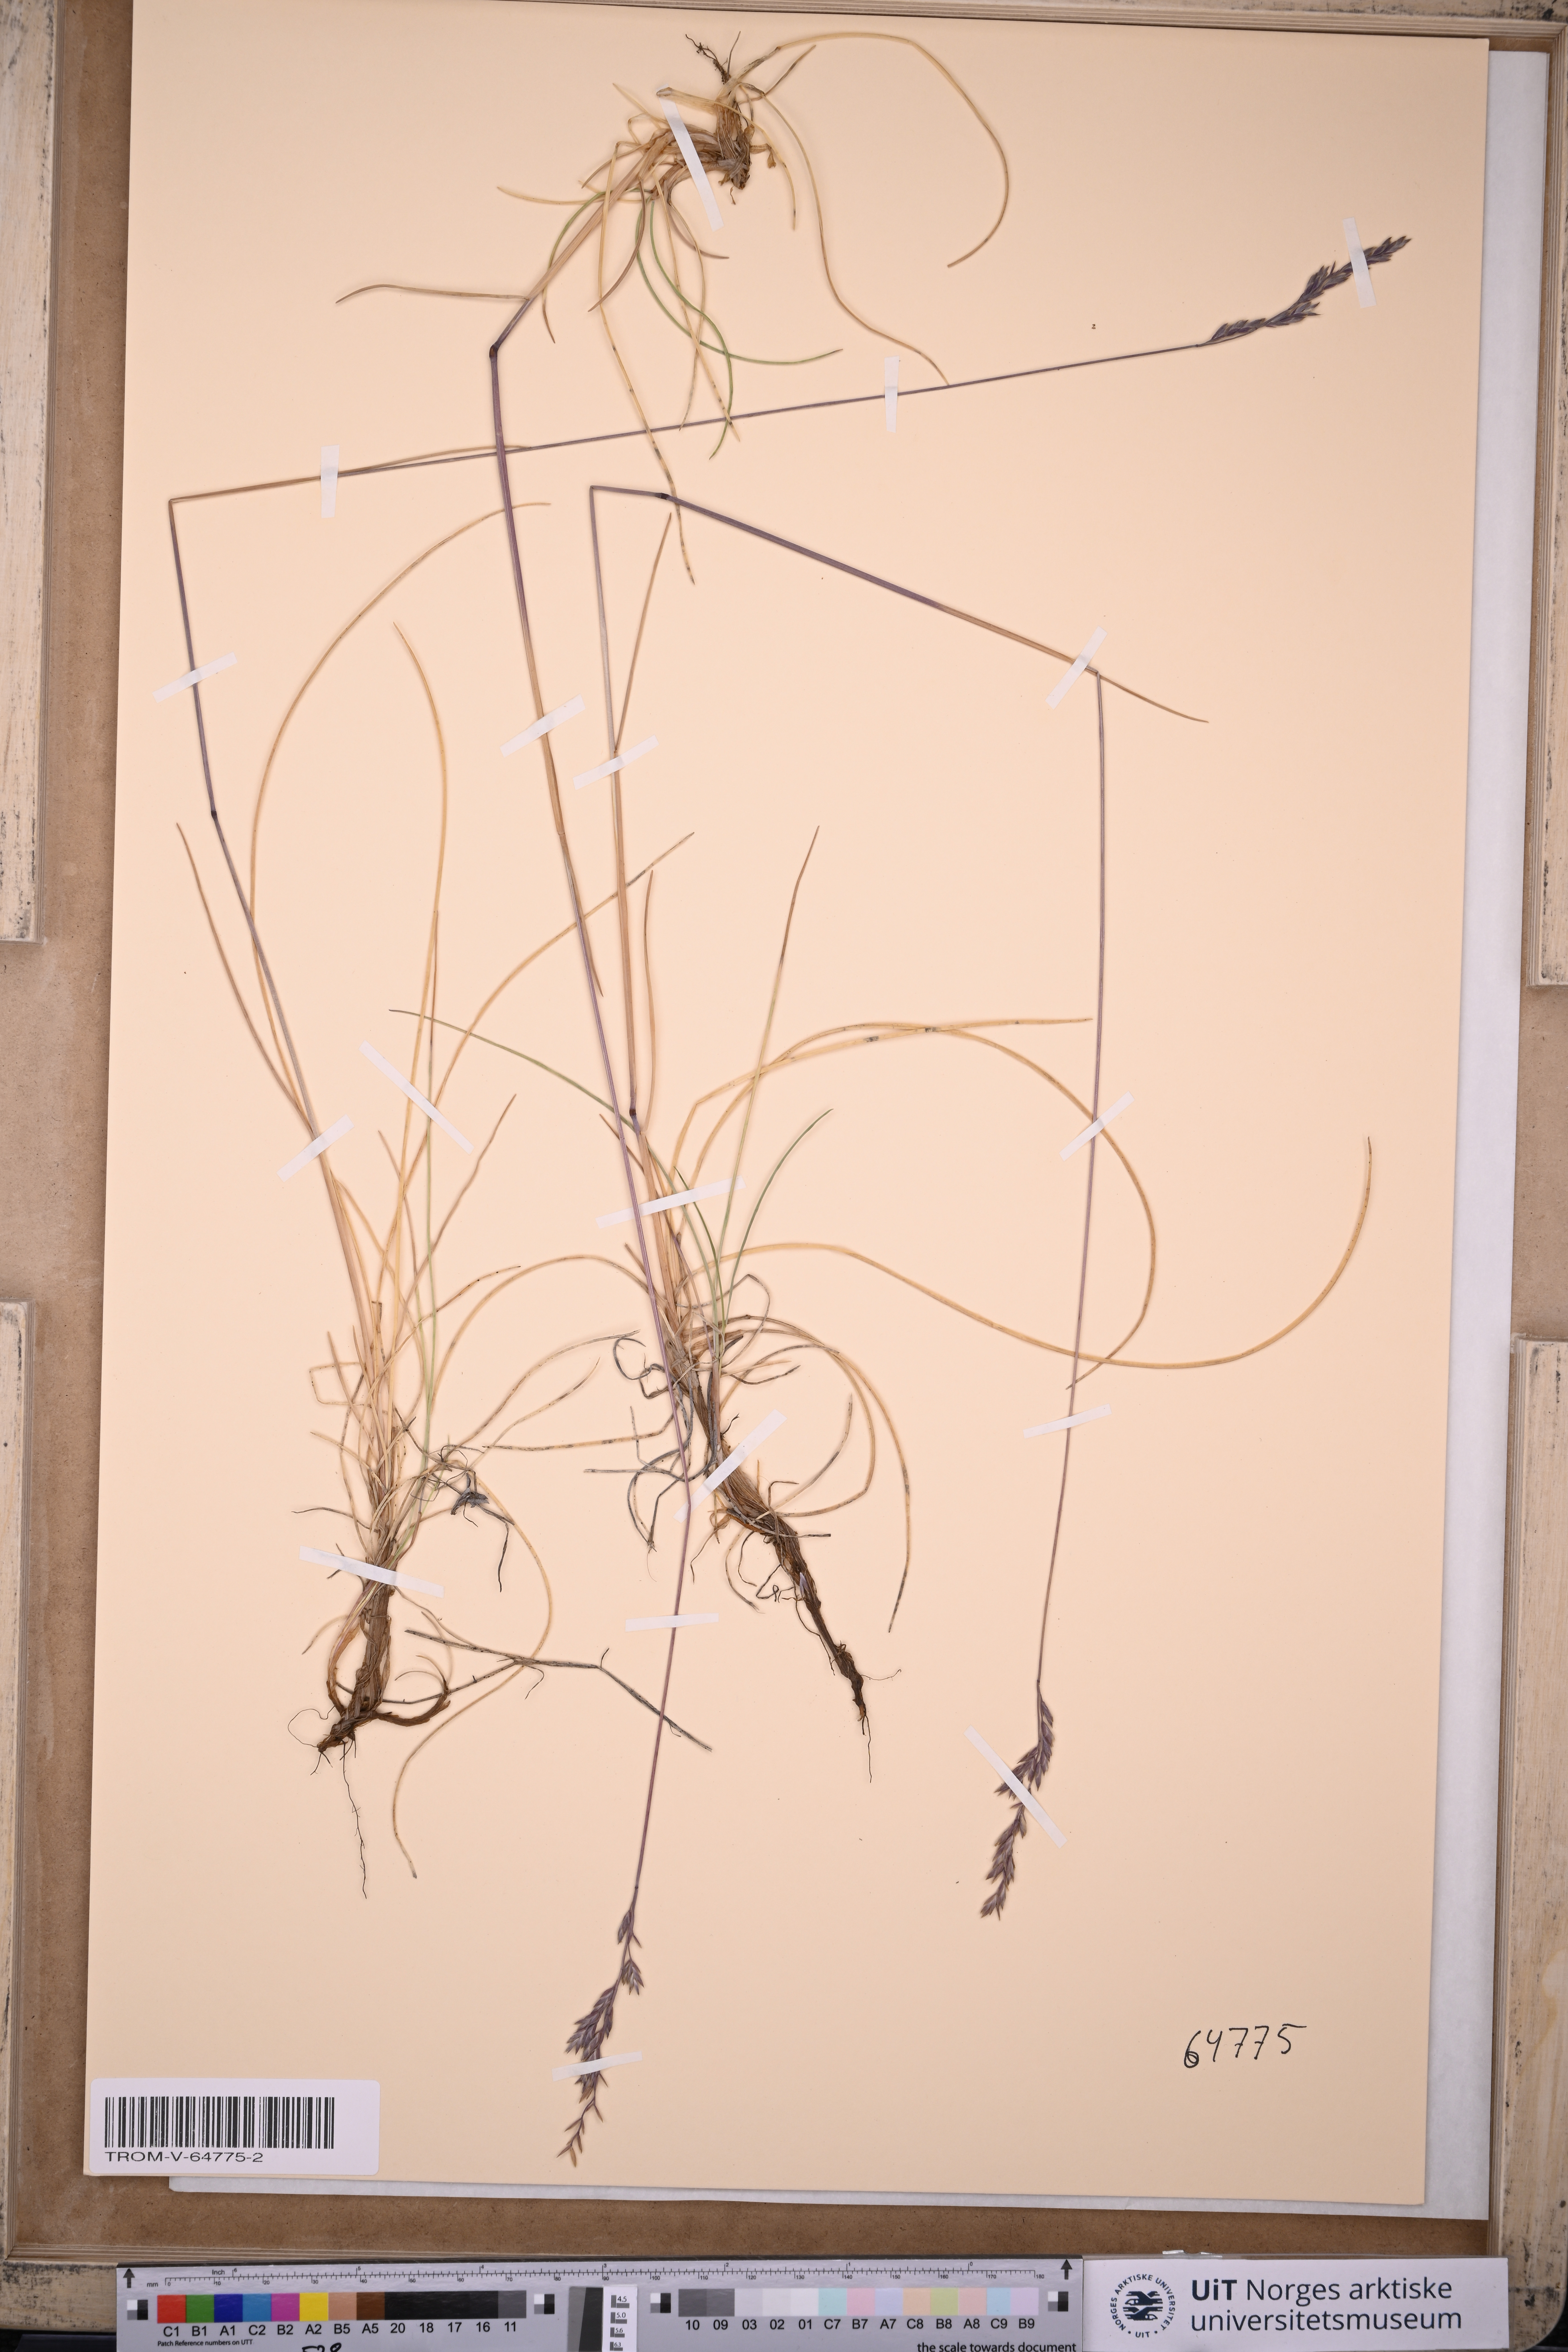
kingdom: Plantae
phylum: Tracheophyta
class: Liliopsida
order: Poales
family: Poaceae
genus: Festuca
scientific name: Festuca rubra
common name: Red fescue
